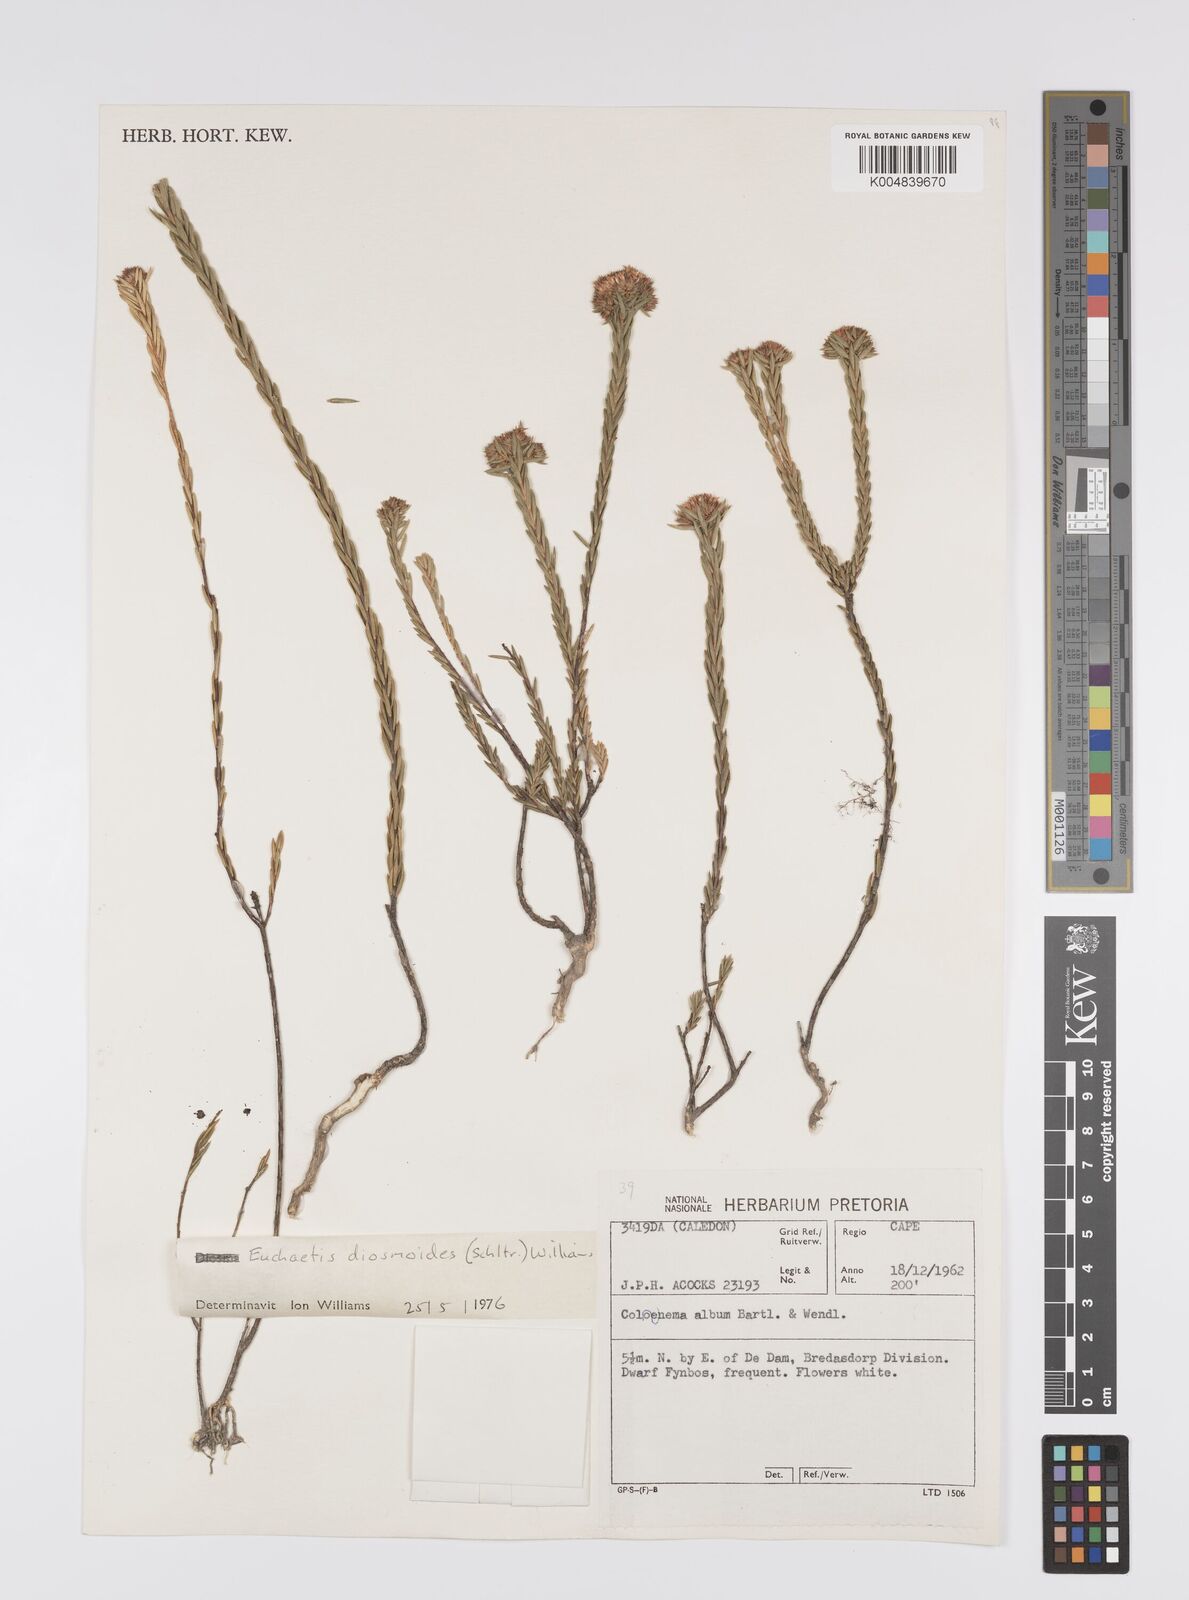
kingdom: Plantae
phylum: Tracheophyta
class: Magnoliopsida
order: Sapindales
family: Rutaceae
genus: Euchaetis
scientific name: Euchaetis diosmoides
